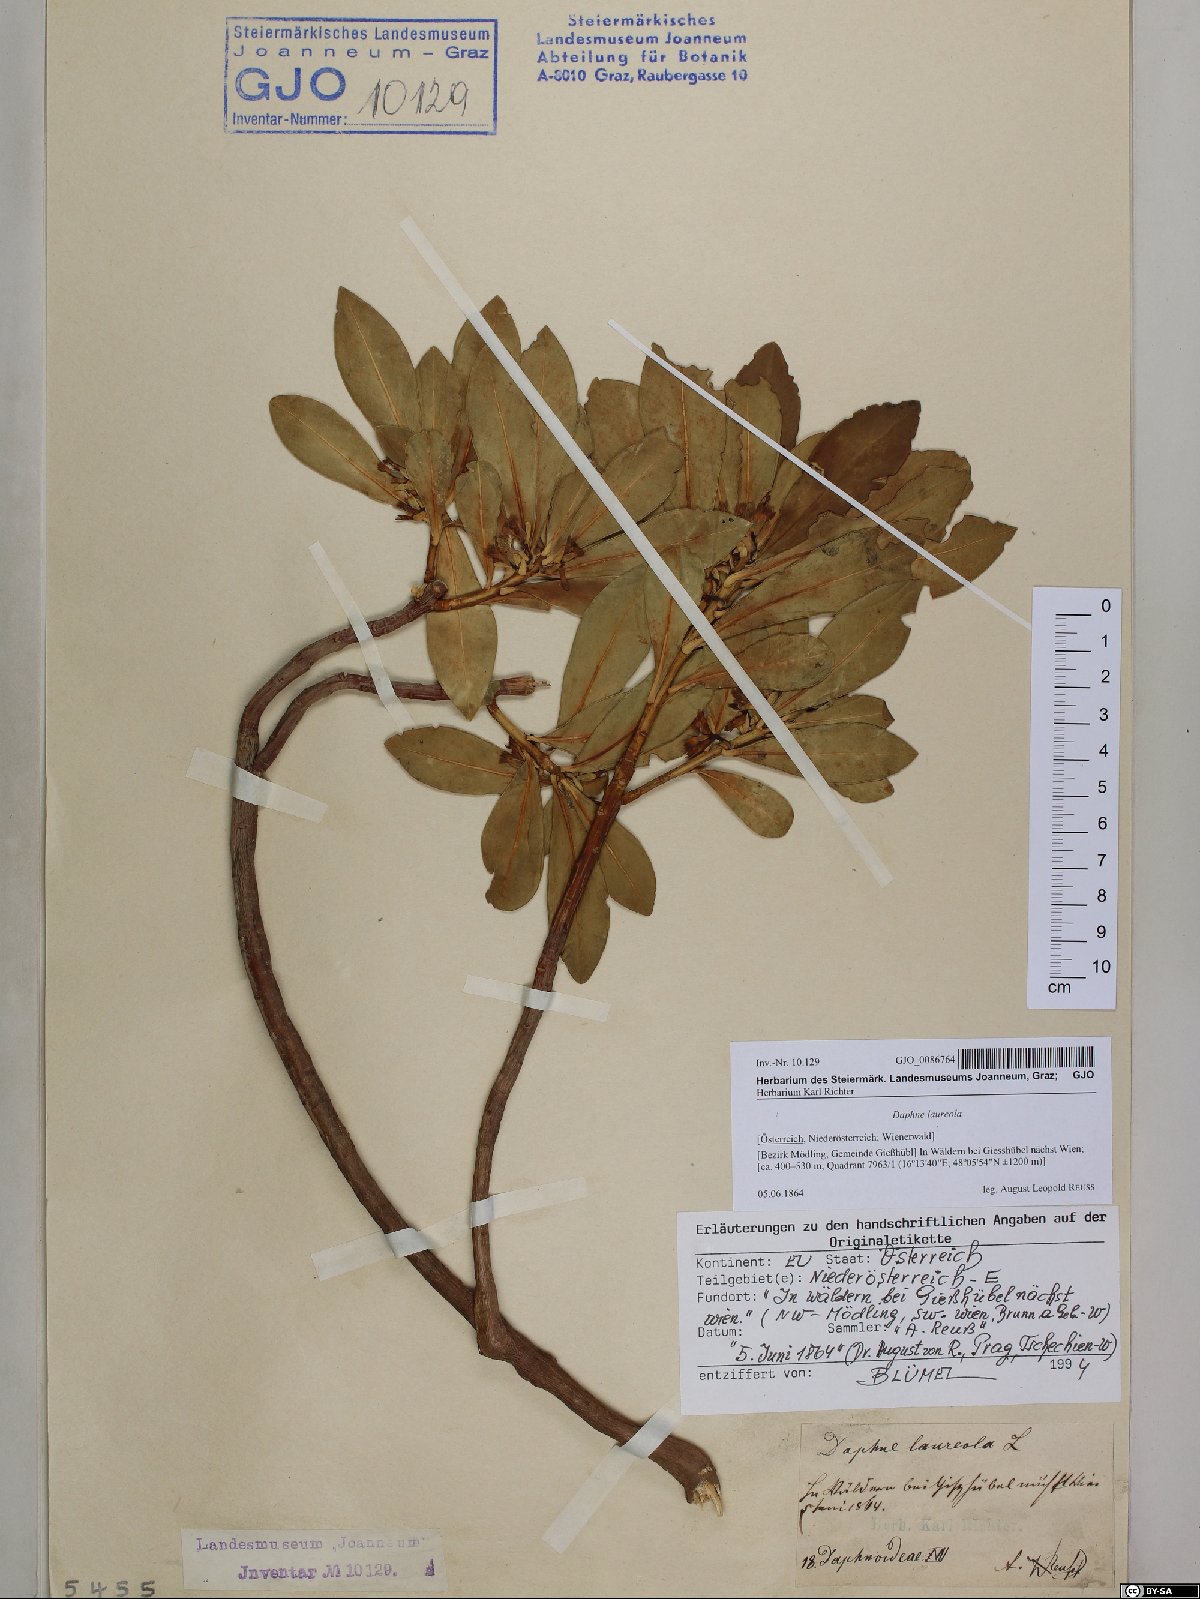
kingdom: Plantae
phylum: Tracheophyta
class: Magnoliopsida
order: Malvales
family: Thymelaeaceae
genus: Daphne
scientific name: Daphne laureola
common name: Spurge-laurel
